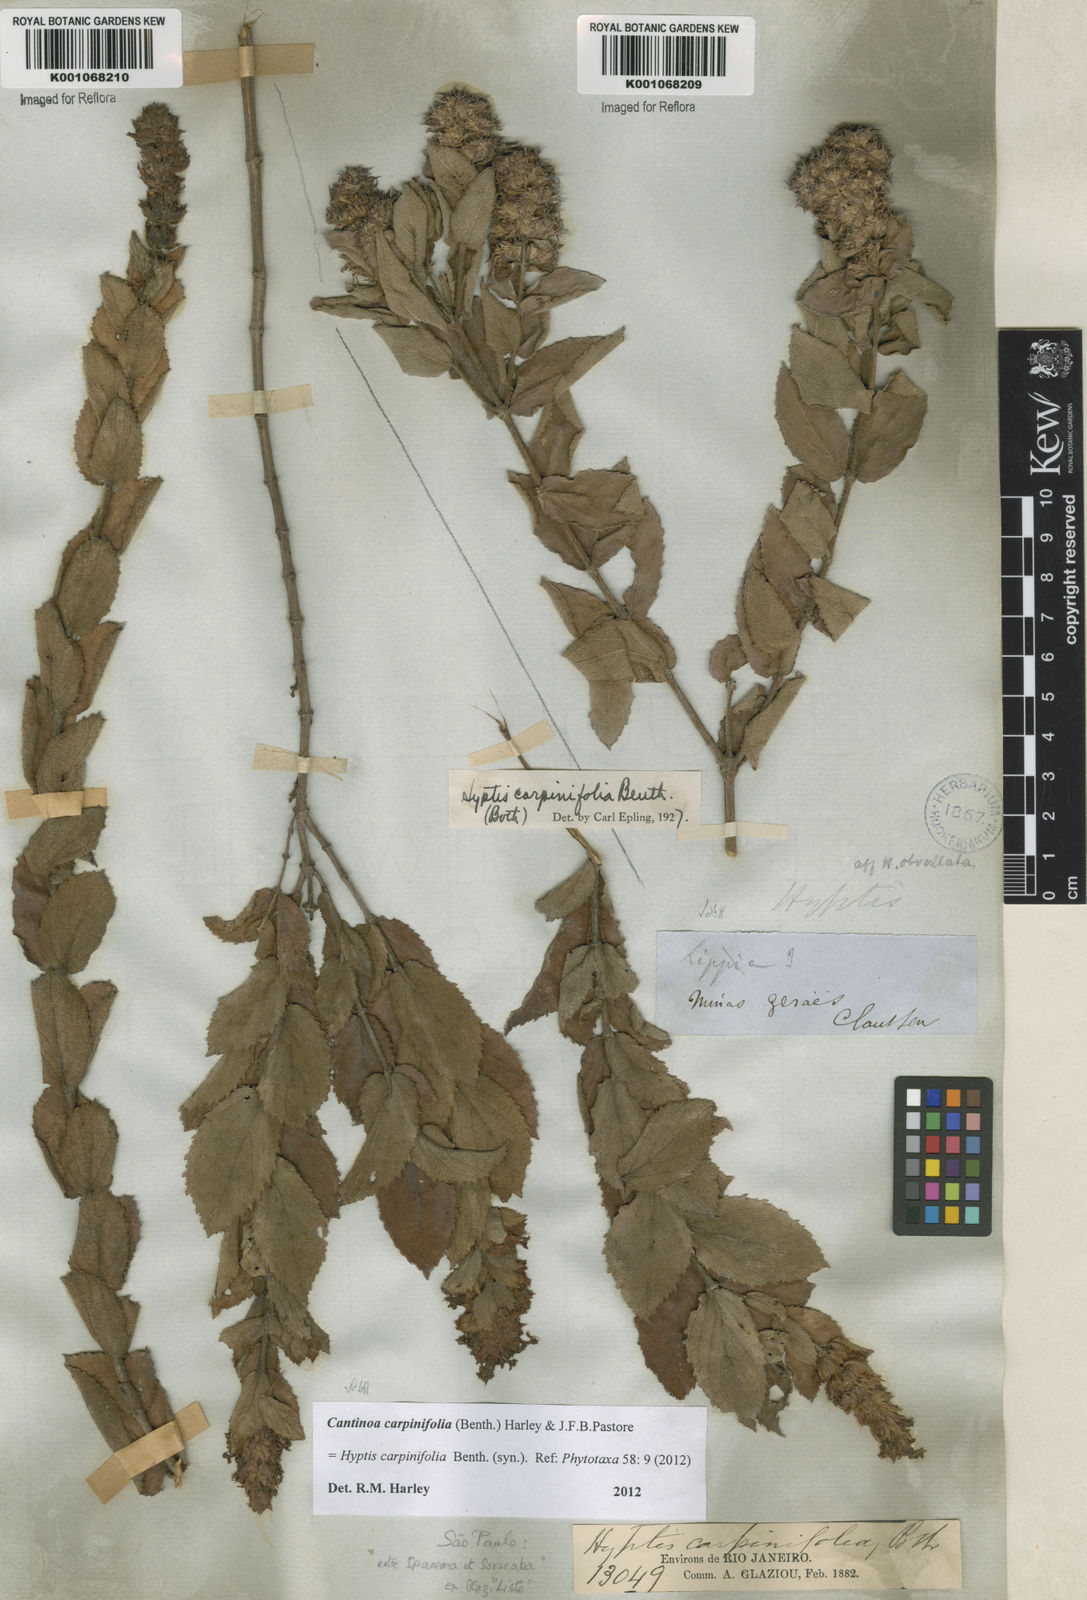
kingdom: Plantae
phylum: Tracheophyta
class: Magnoliopsida
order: Lamiales
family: Lamiaceae
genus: Cantinoa
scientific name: Cantinoa carpinifolia
